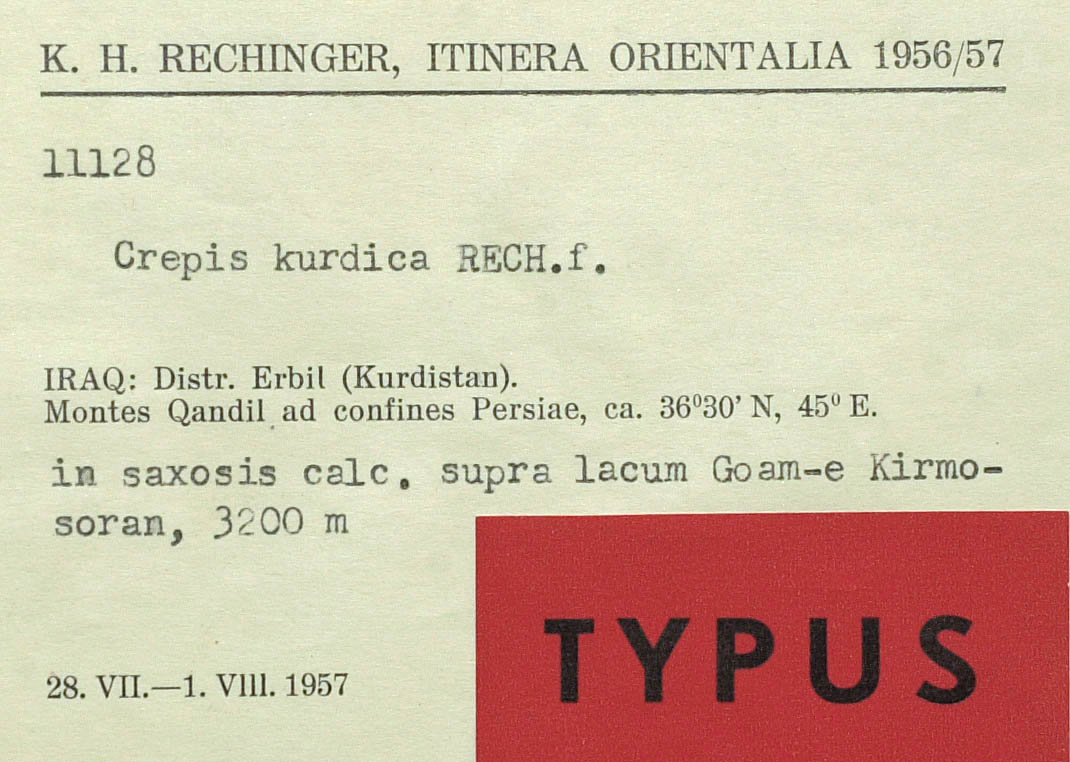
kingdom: Plantae
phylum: Tracheophyta
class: Magnoliopsida
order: Asterales
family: Asteraceae
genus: Crepis
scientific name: Crepis kurdica
